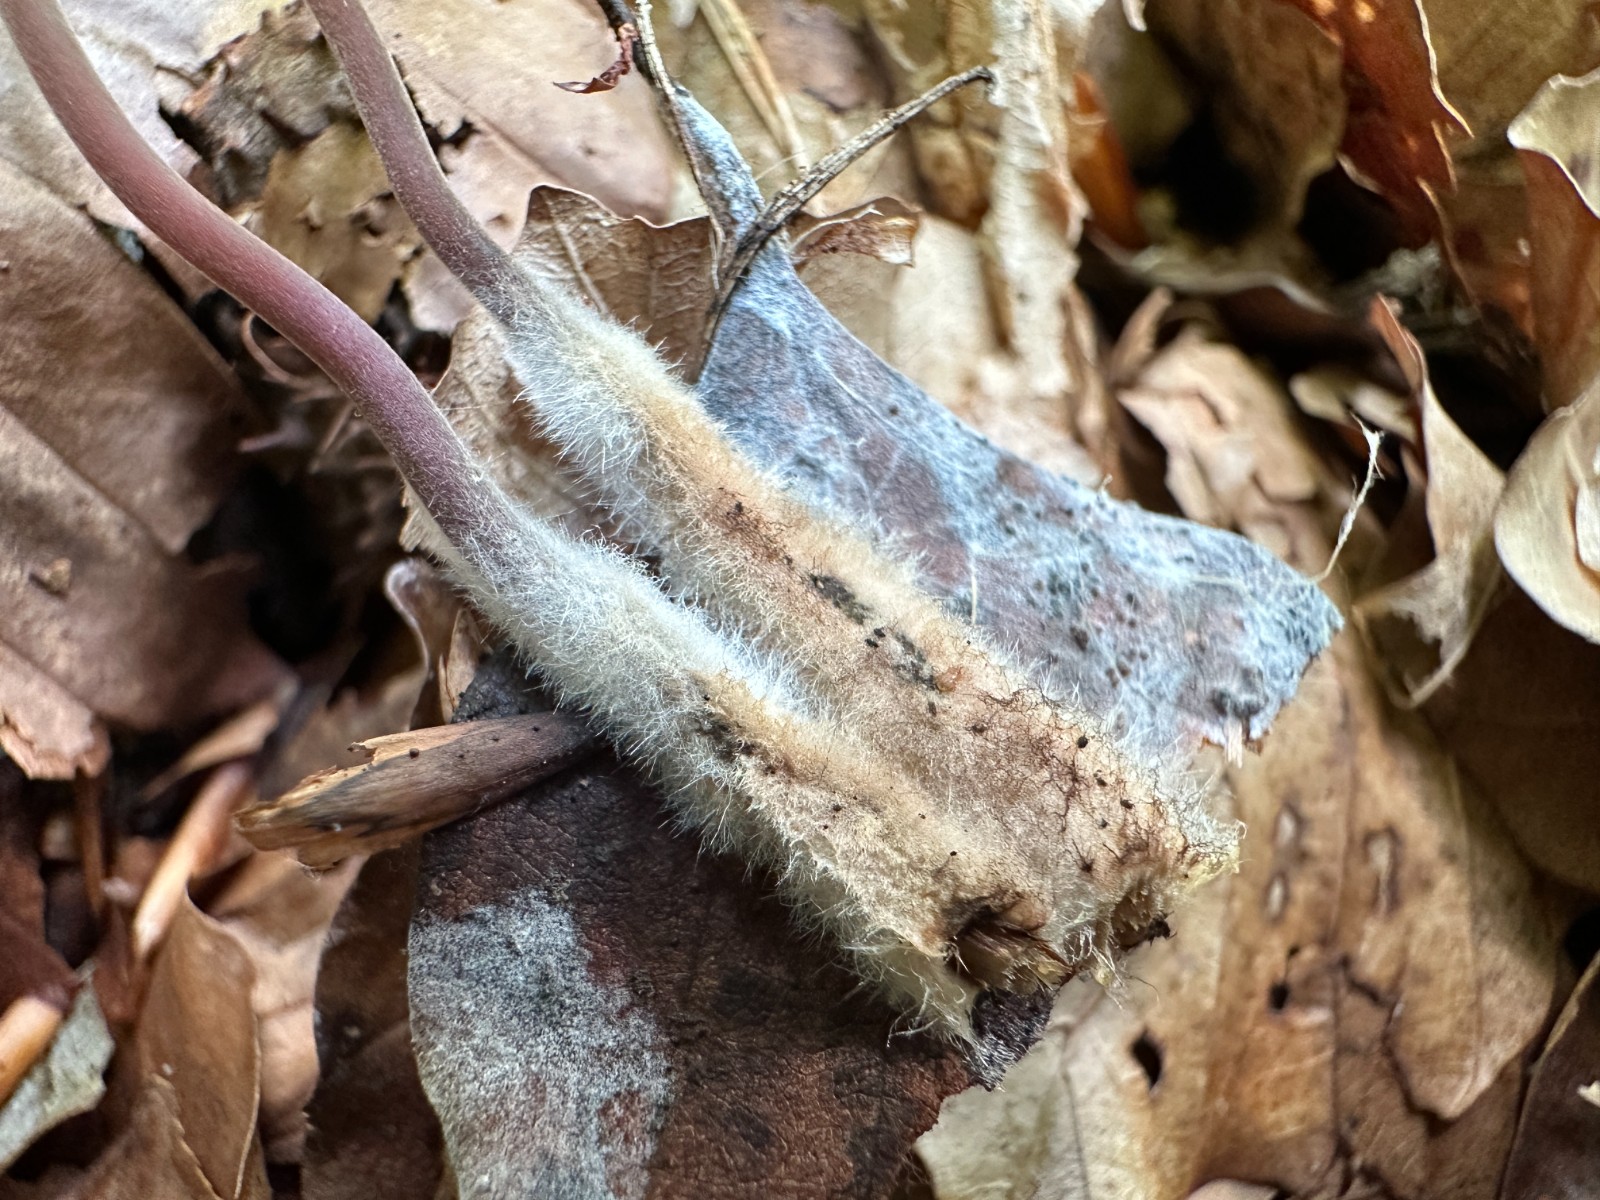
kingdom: Fungi
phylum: Basidiomycota
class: Agaricomycetes
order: Agaricales
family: Marasmiaceae
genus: Marasmius
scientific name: Marasmius torquescens
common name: filtfodet bruskhat
